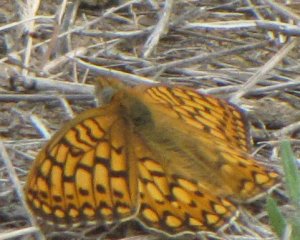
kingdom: Animalia
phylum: Arthropoda
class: Insecta
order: Lepidoptera
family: Nymphalidae
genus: Speyeria
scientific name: Speyeria callippe
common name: Callippe Fritillary
